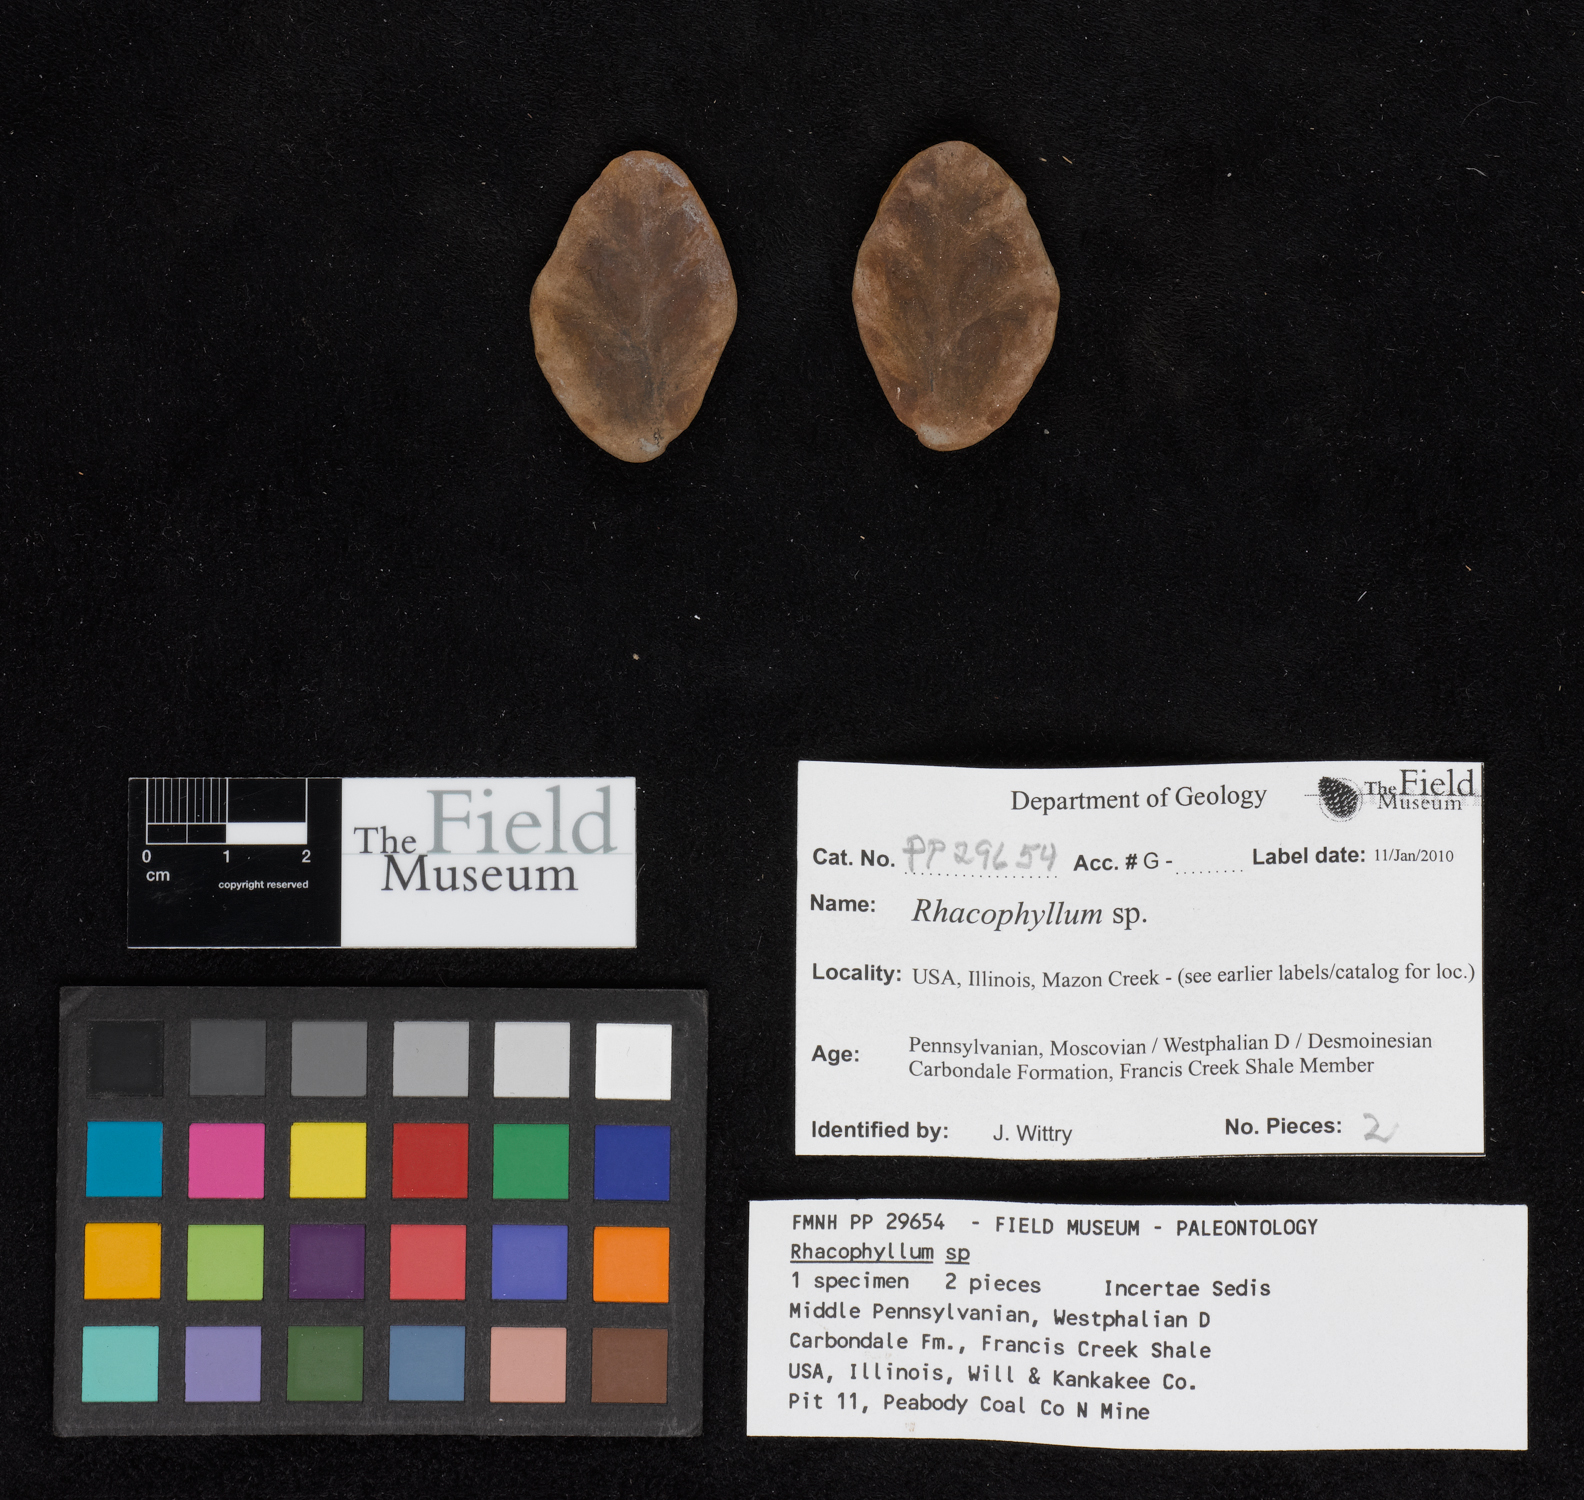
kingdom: Plantae
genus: Rhacophyllum
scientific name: Rhacophyllum
